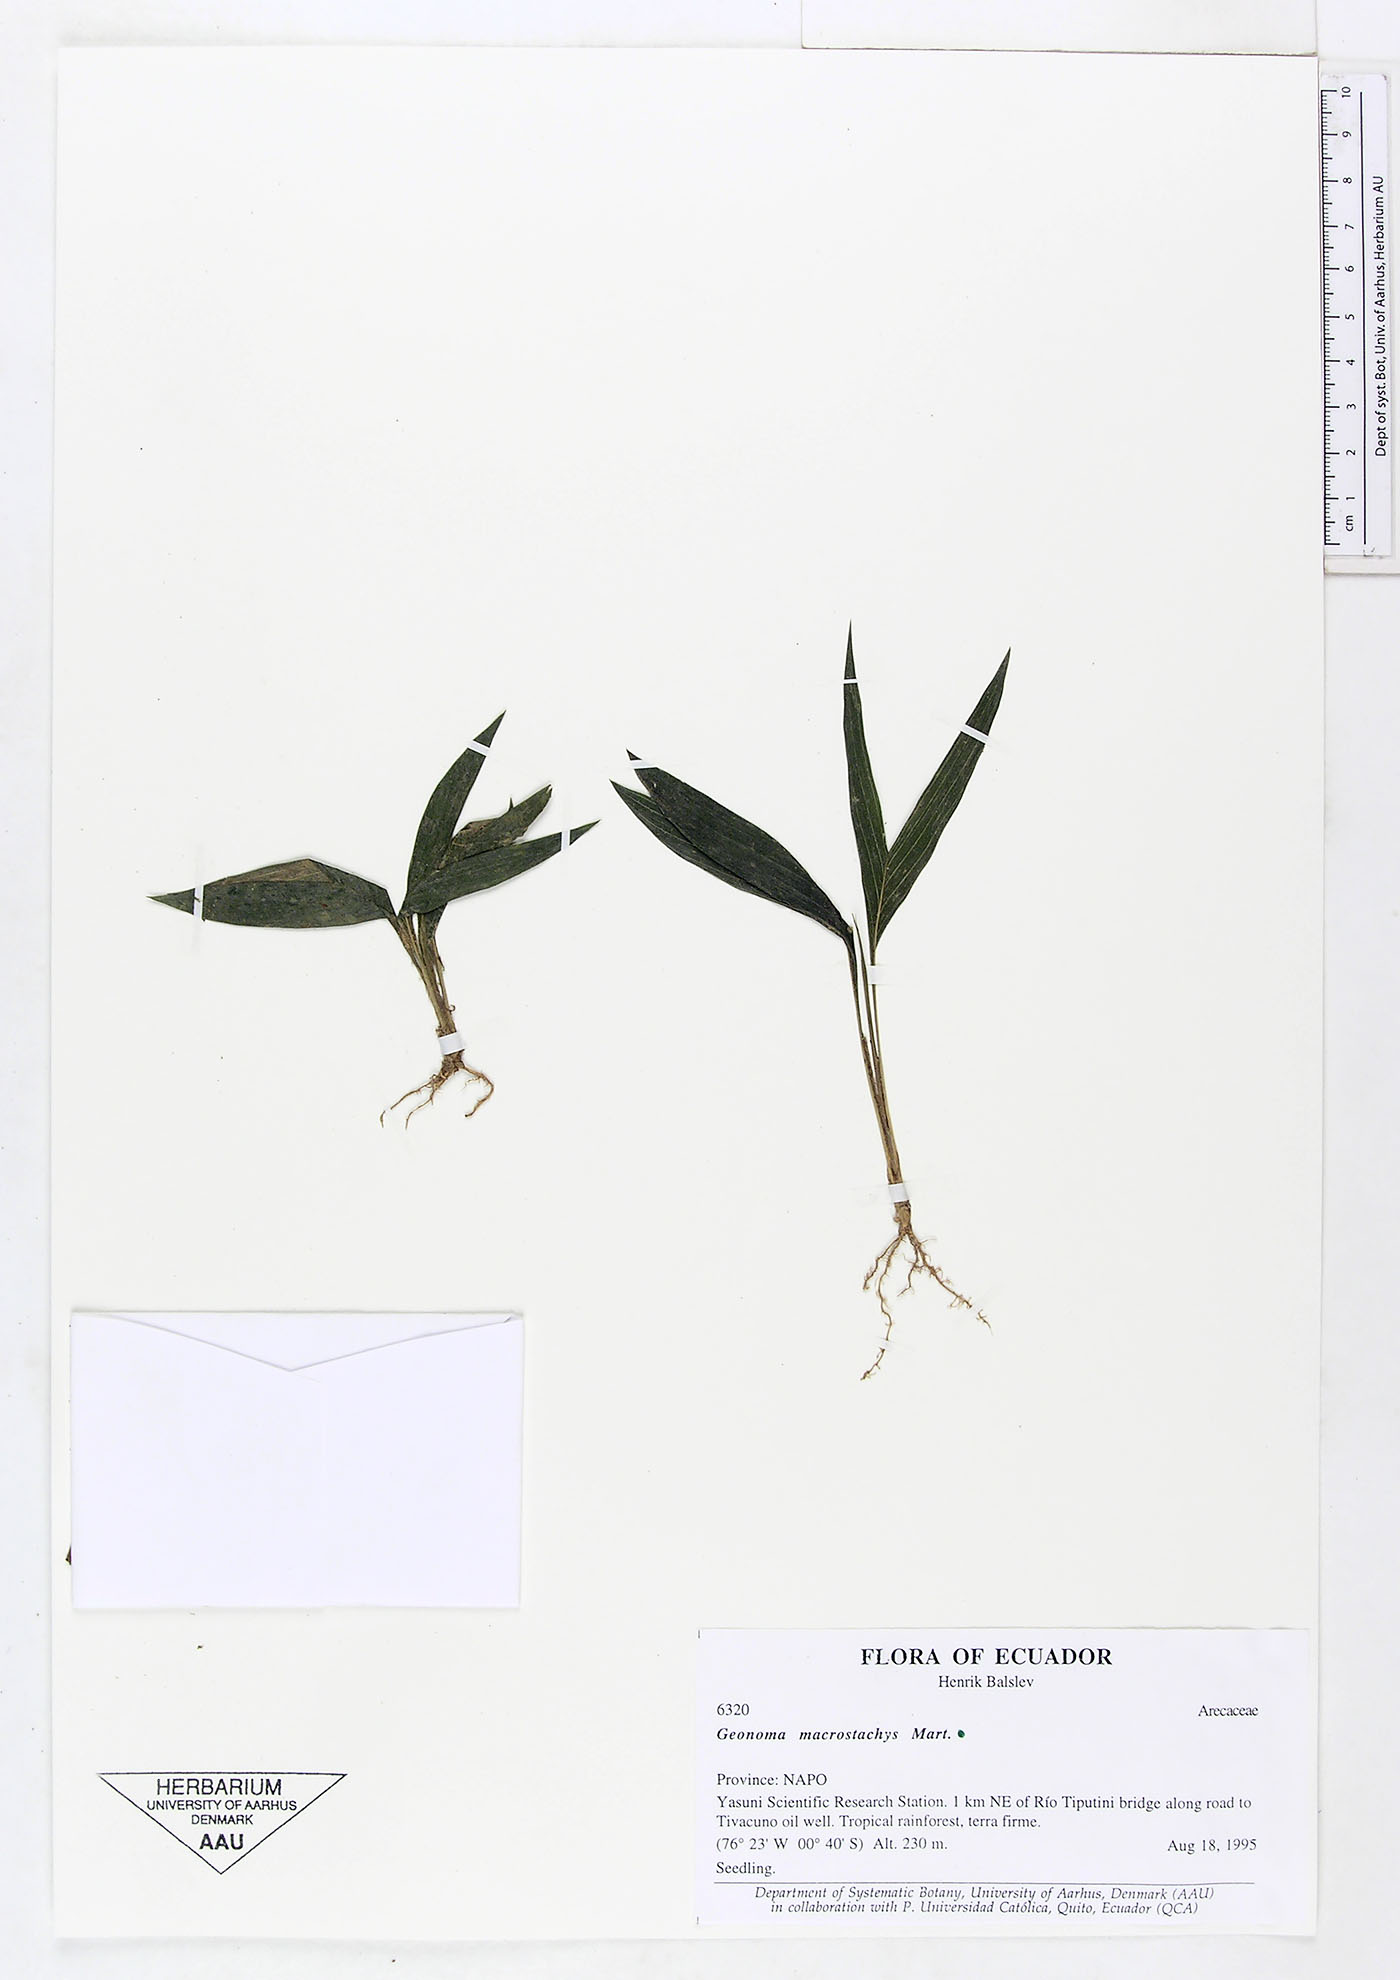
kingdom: Plantae
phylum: Tracheophyta
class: Liliopsida
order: Arecales
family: Arecaceae
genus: Geonoma
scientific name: Geonoma macrostachys
